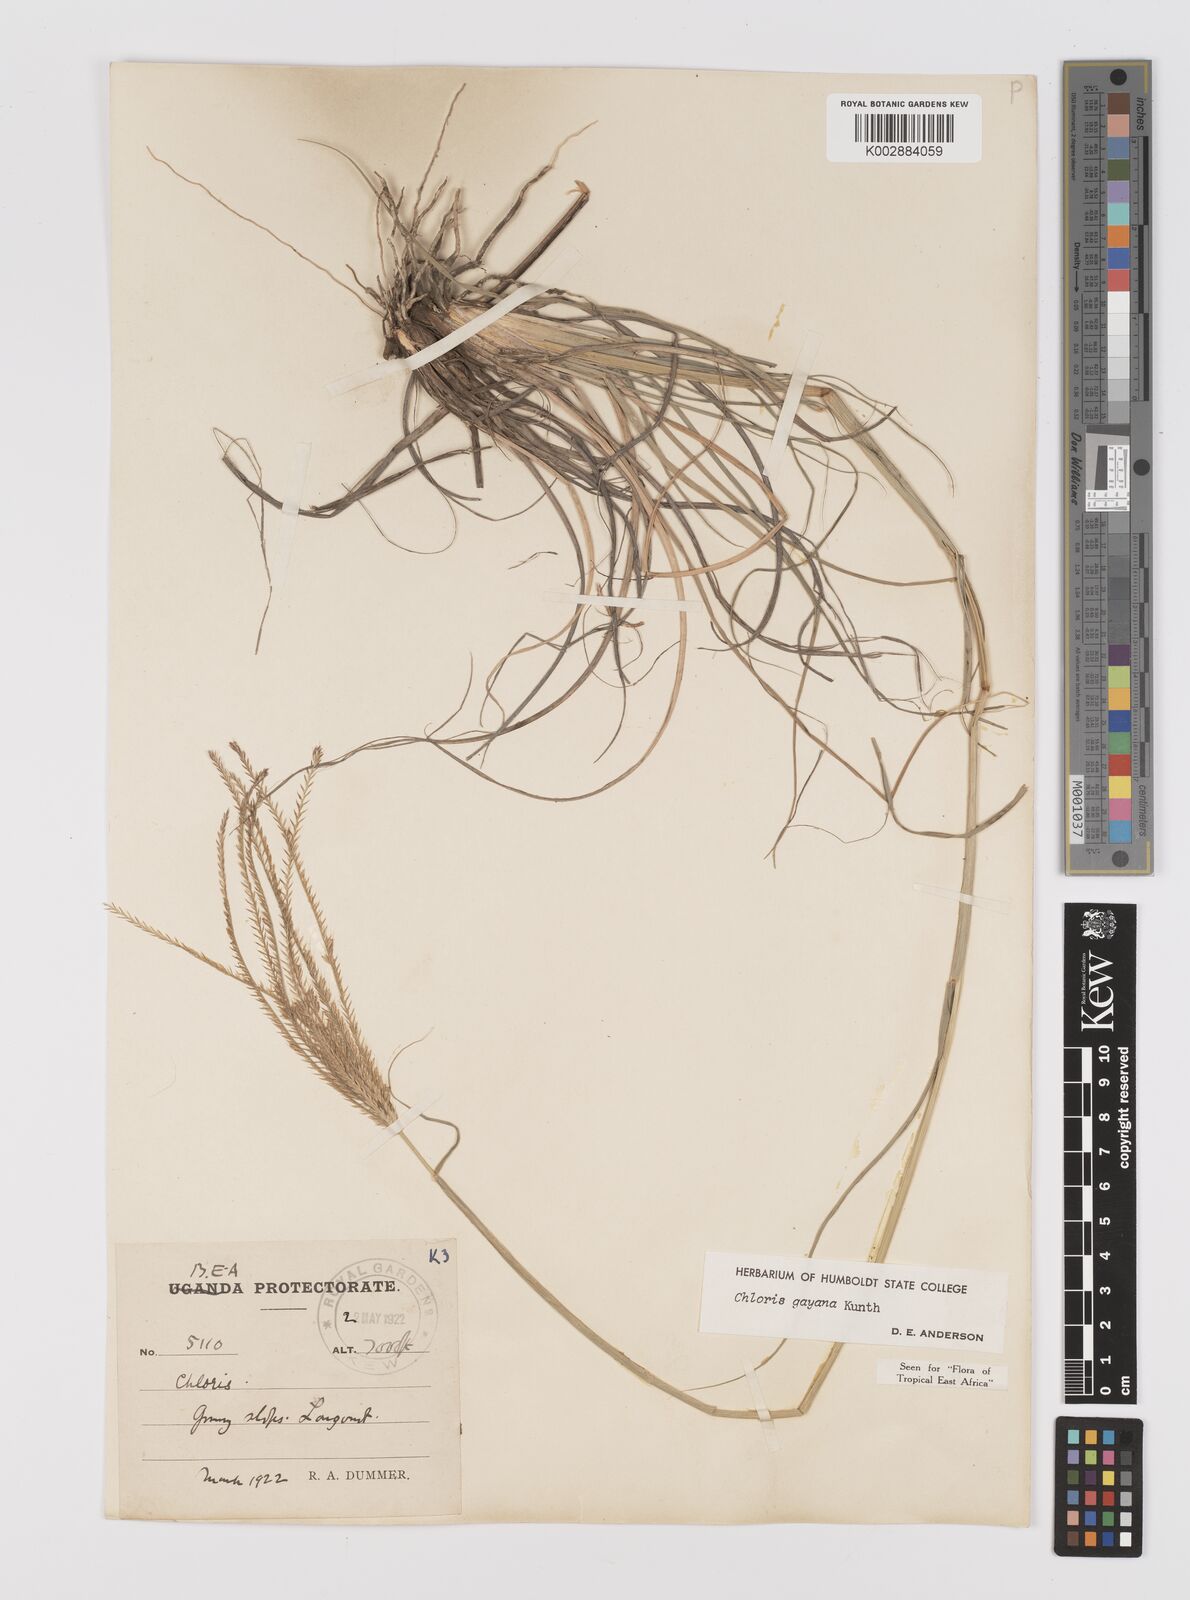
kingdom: Plantae
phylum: Tracheophyta
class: Liliopsida
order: Poales
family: Poaceae
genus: Chloris
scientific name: Chloris gayana
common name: Rhodes grass
